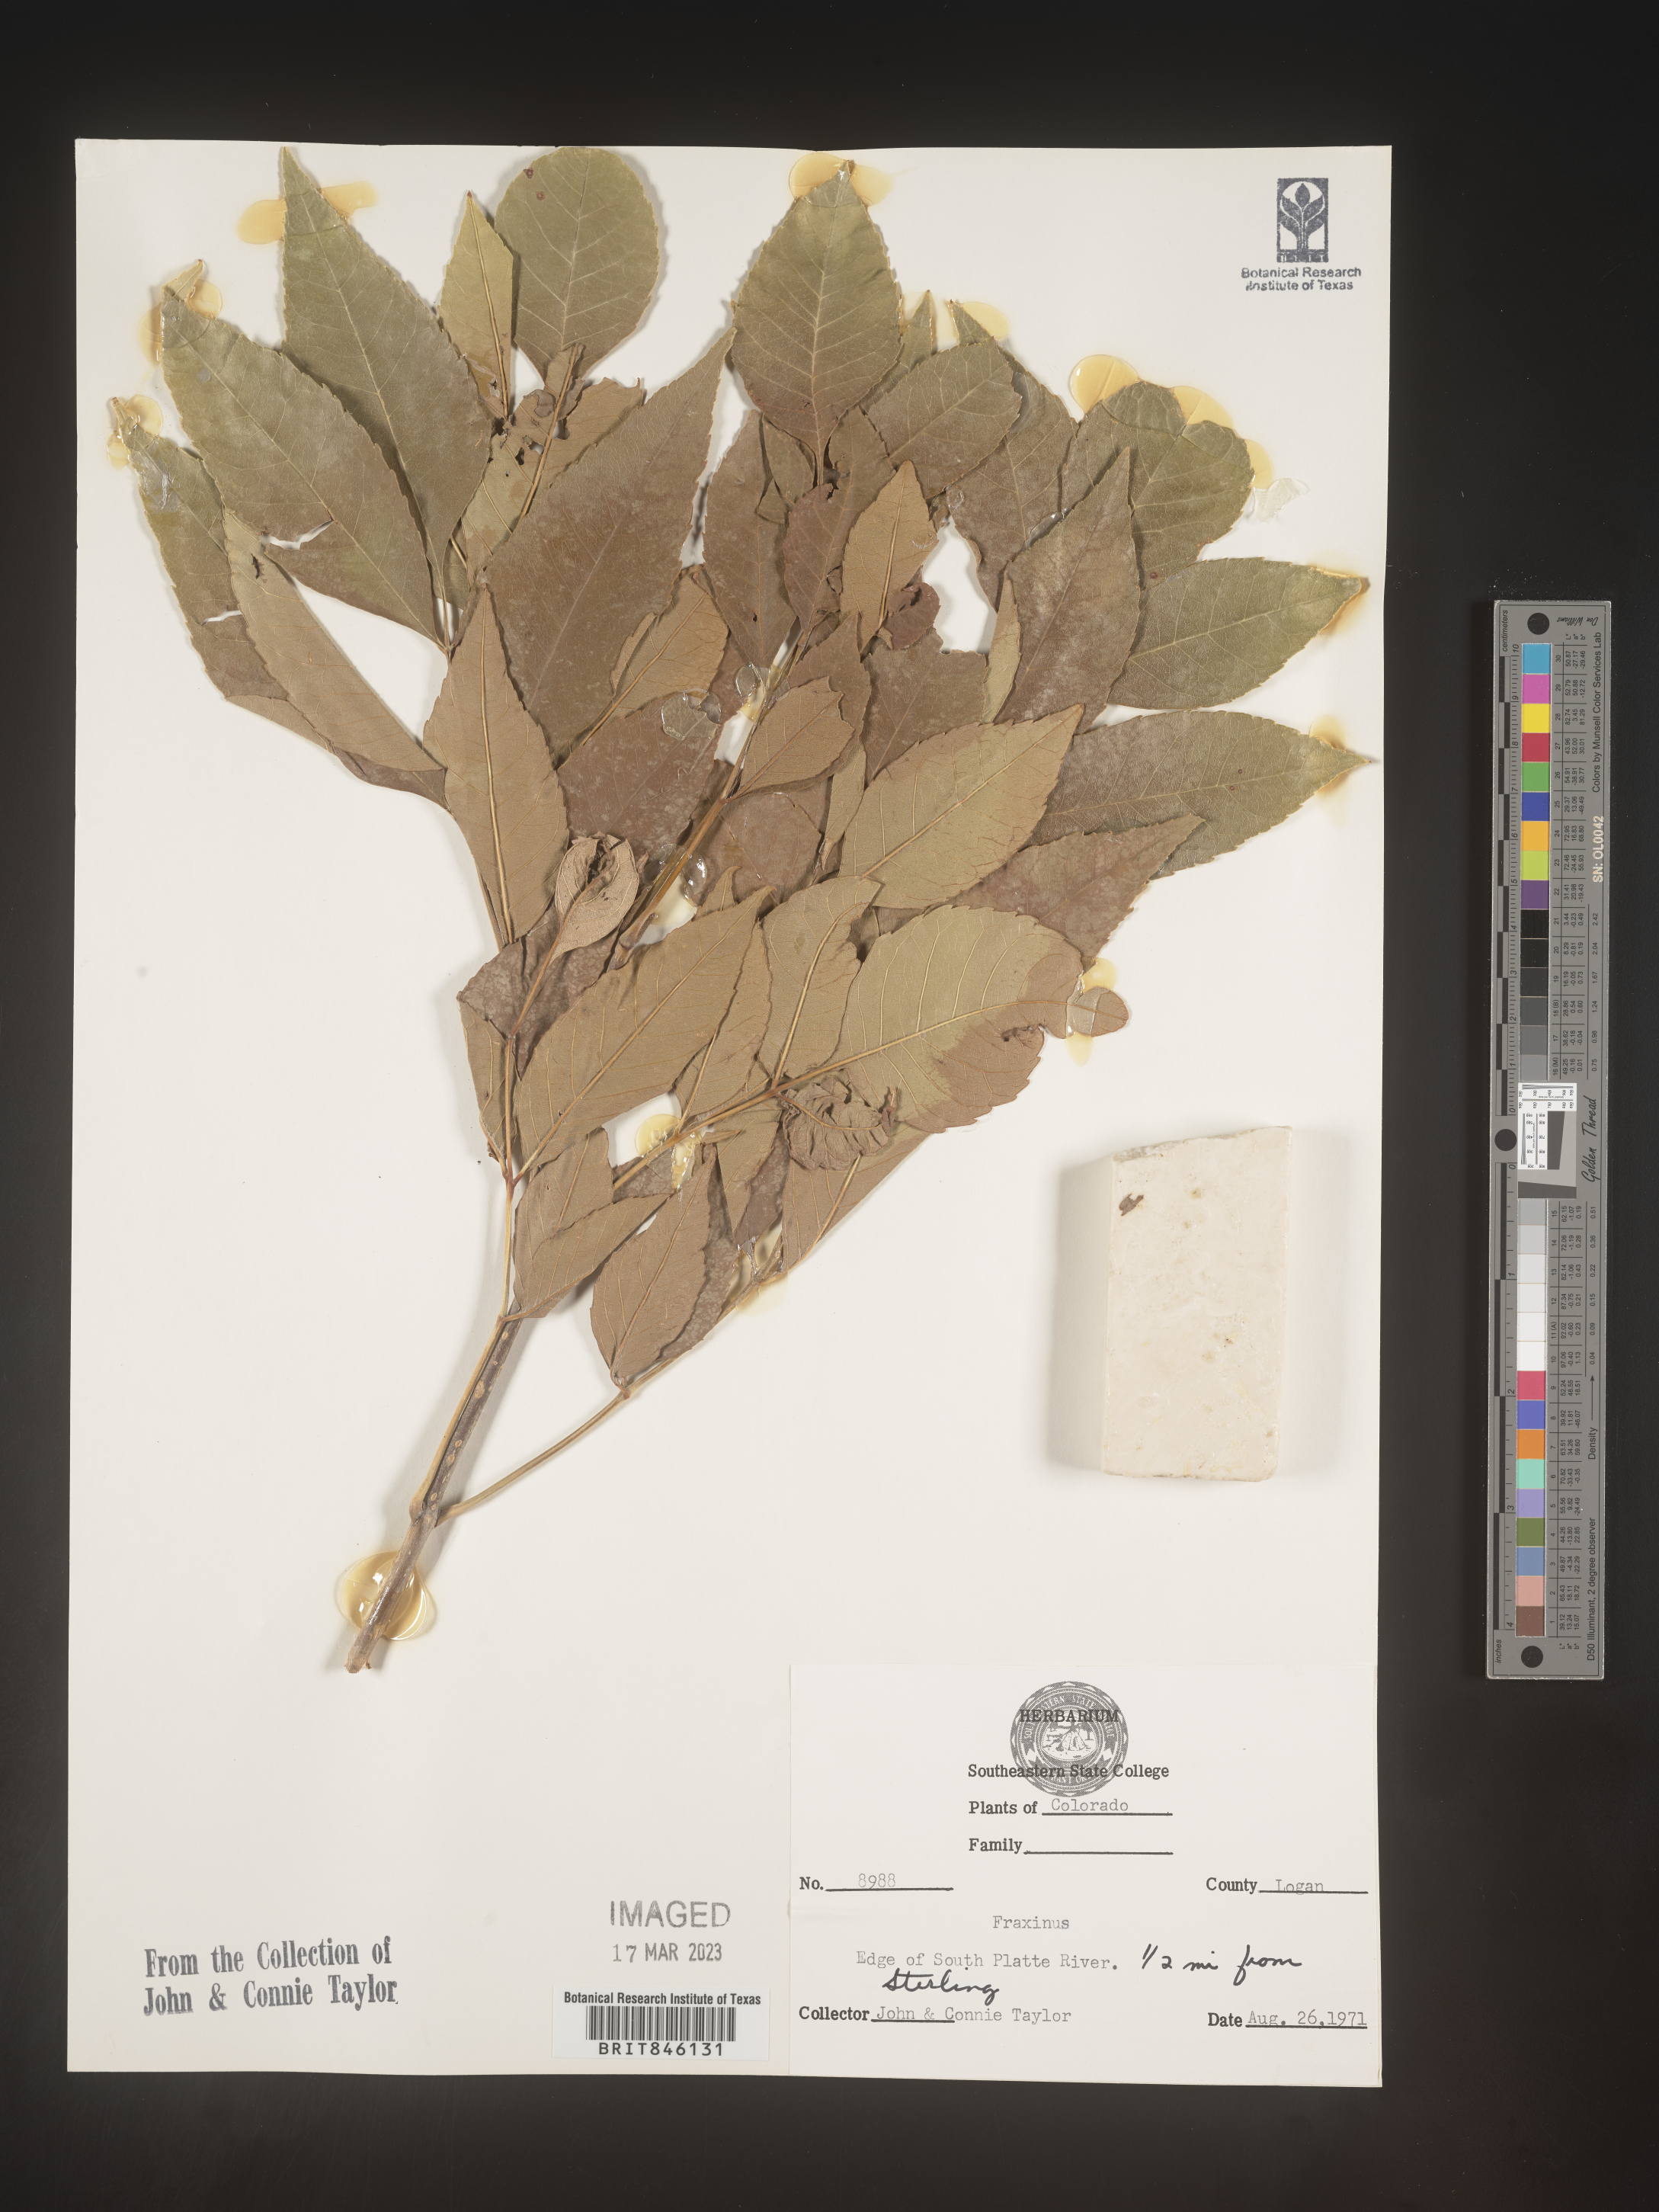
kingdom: Plantae
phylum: Tracheophyta
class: Magnoliopsida
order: Lamiales
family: Oleaceae
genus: Fraxinus
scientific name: Fraxinus pennsylvanica
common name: Green ash
